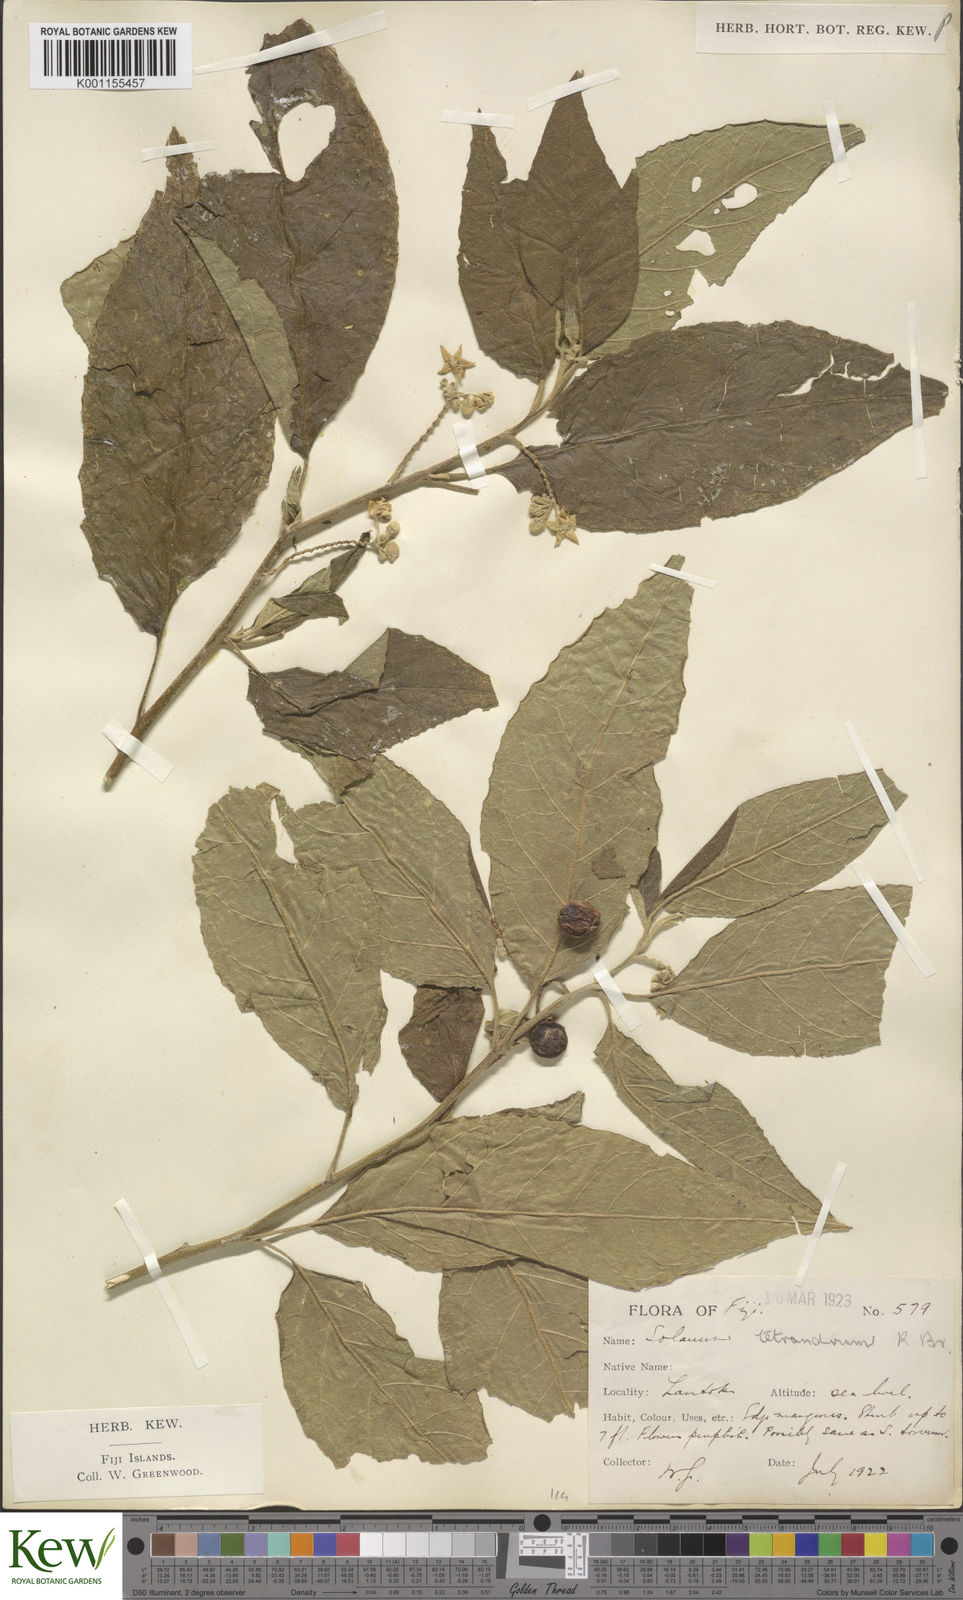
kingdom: Plantae
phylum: Tracheophyta
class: Magnoliopsida
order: Solanales
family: Solanaceae
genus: Solanum
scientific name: Solanum inamoenum
